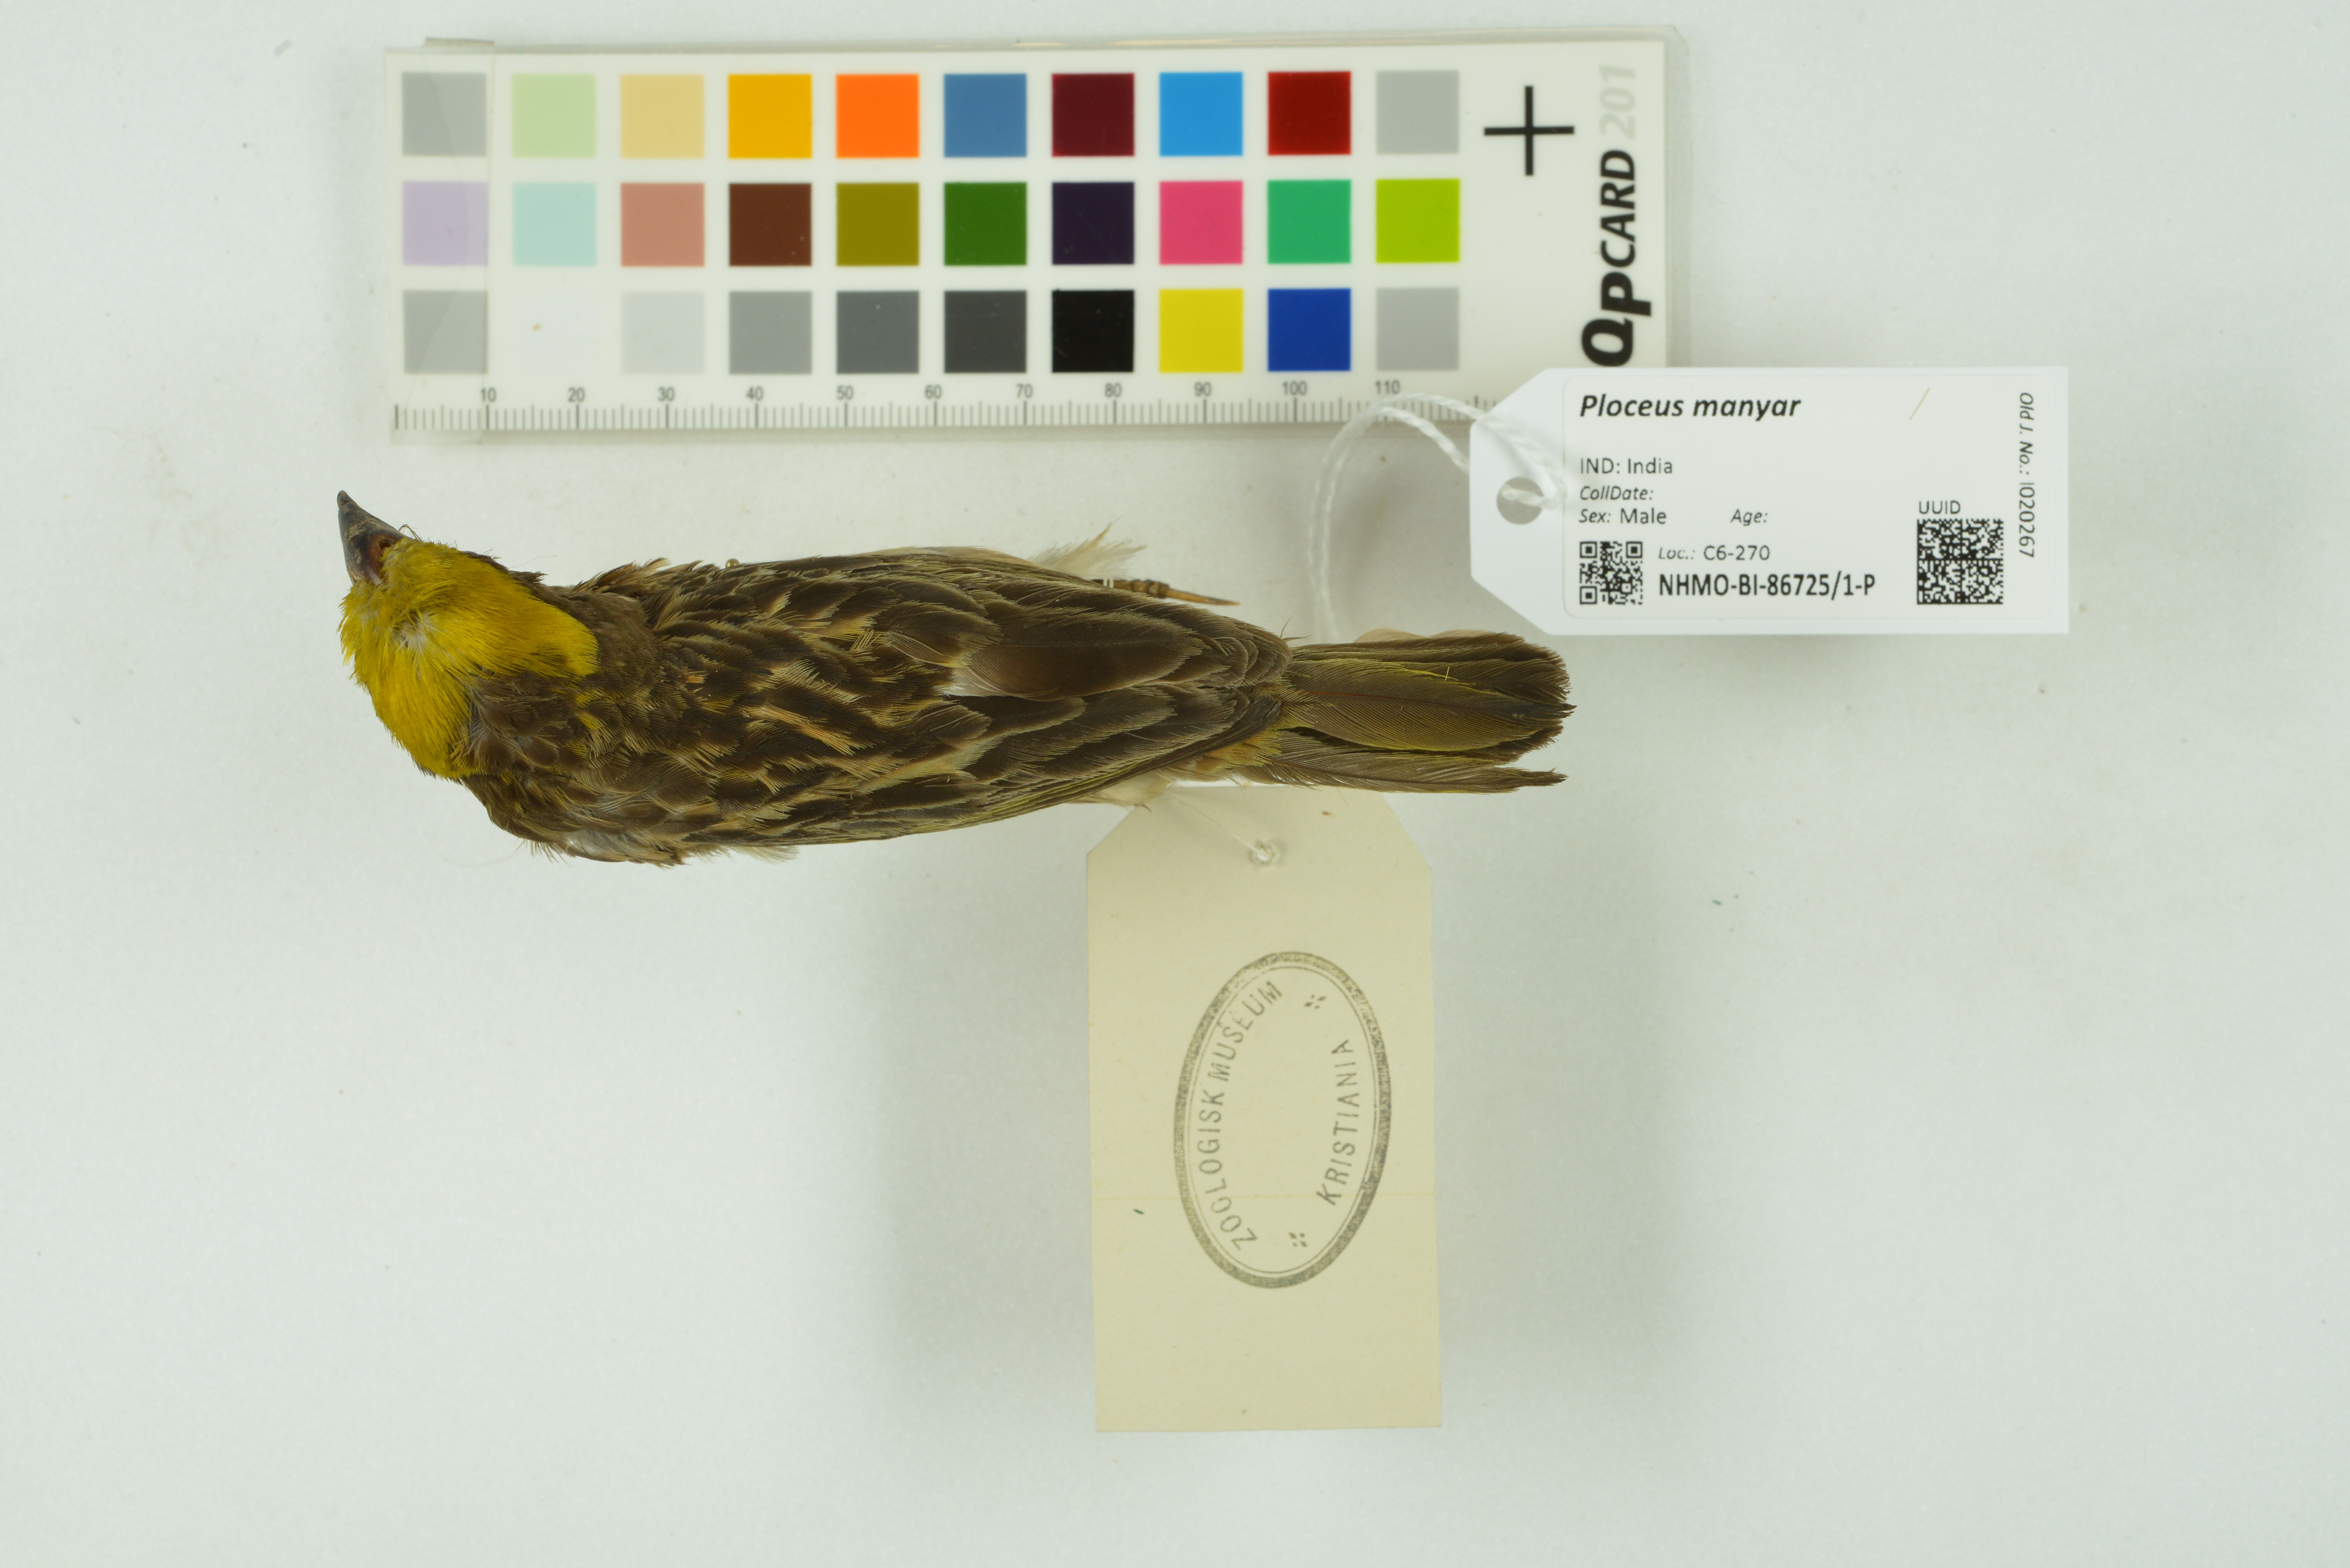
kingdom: Animalia
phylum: Chordata
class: Aves
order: Passeriformes
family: Ploceidae
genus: Ploceus
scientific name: Ploceus manyar
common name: Streaked weaver
